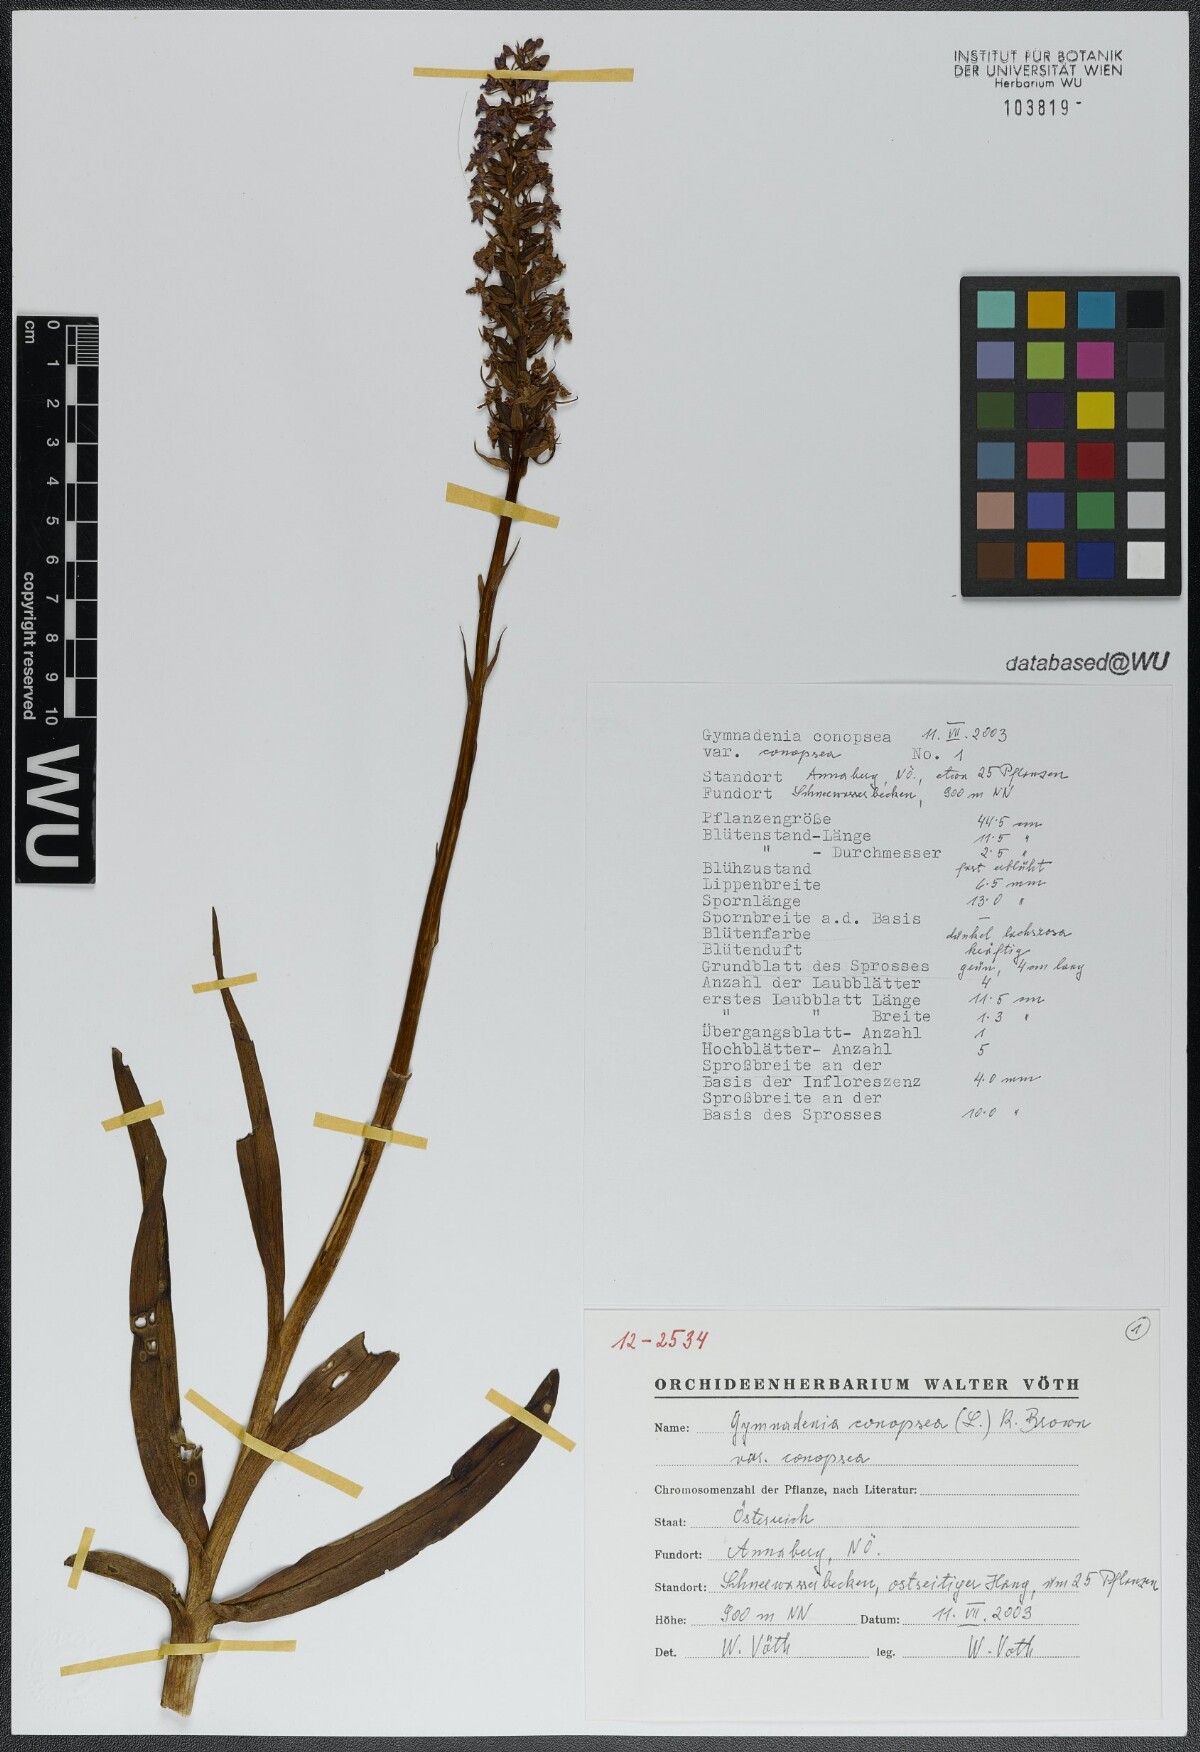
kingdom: Plantae
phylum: Tracheophyta
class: Liliopsida
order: Asparagales
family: Orchidaceae
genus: Gymnadenia
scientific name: Gymnadenia conopsea
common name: Fragrant orchid
